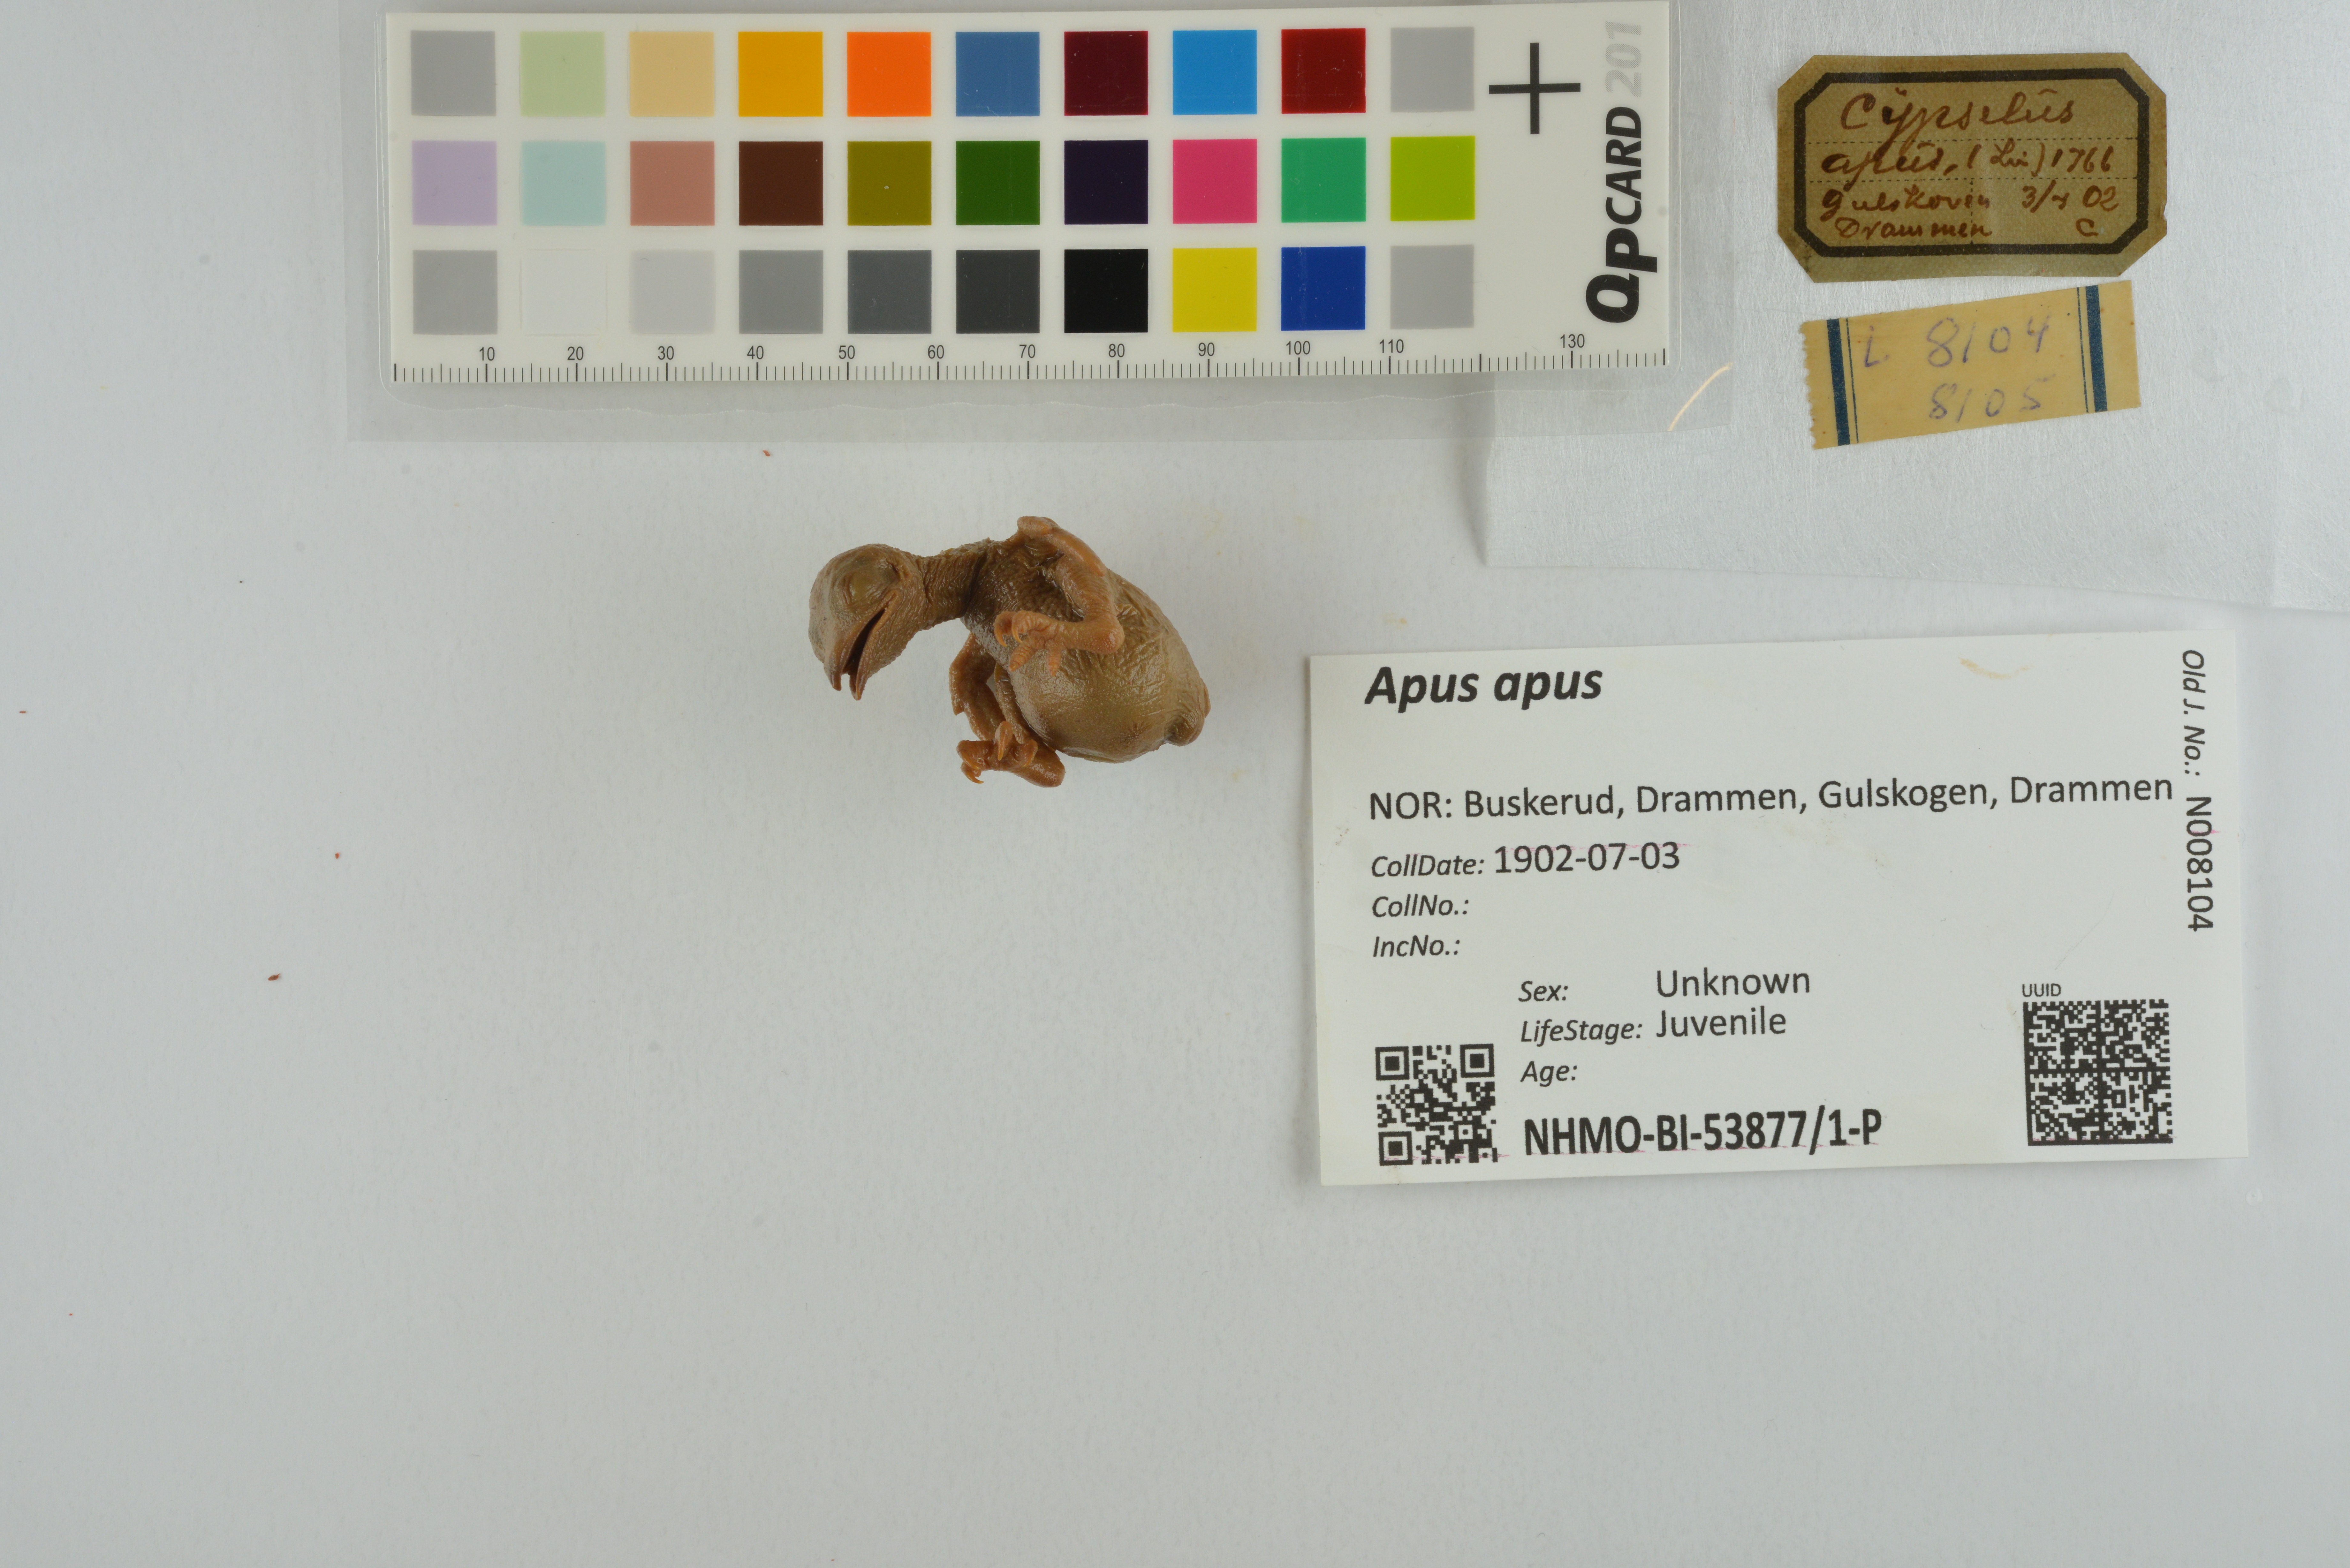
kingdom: Animalia
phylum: Chordata
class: Aves
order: Apodiformes
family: Apodidae
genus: Apus
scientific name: Apus apus
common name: Common swift
